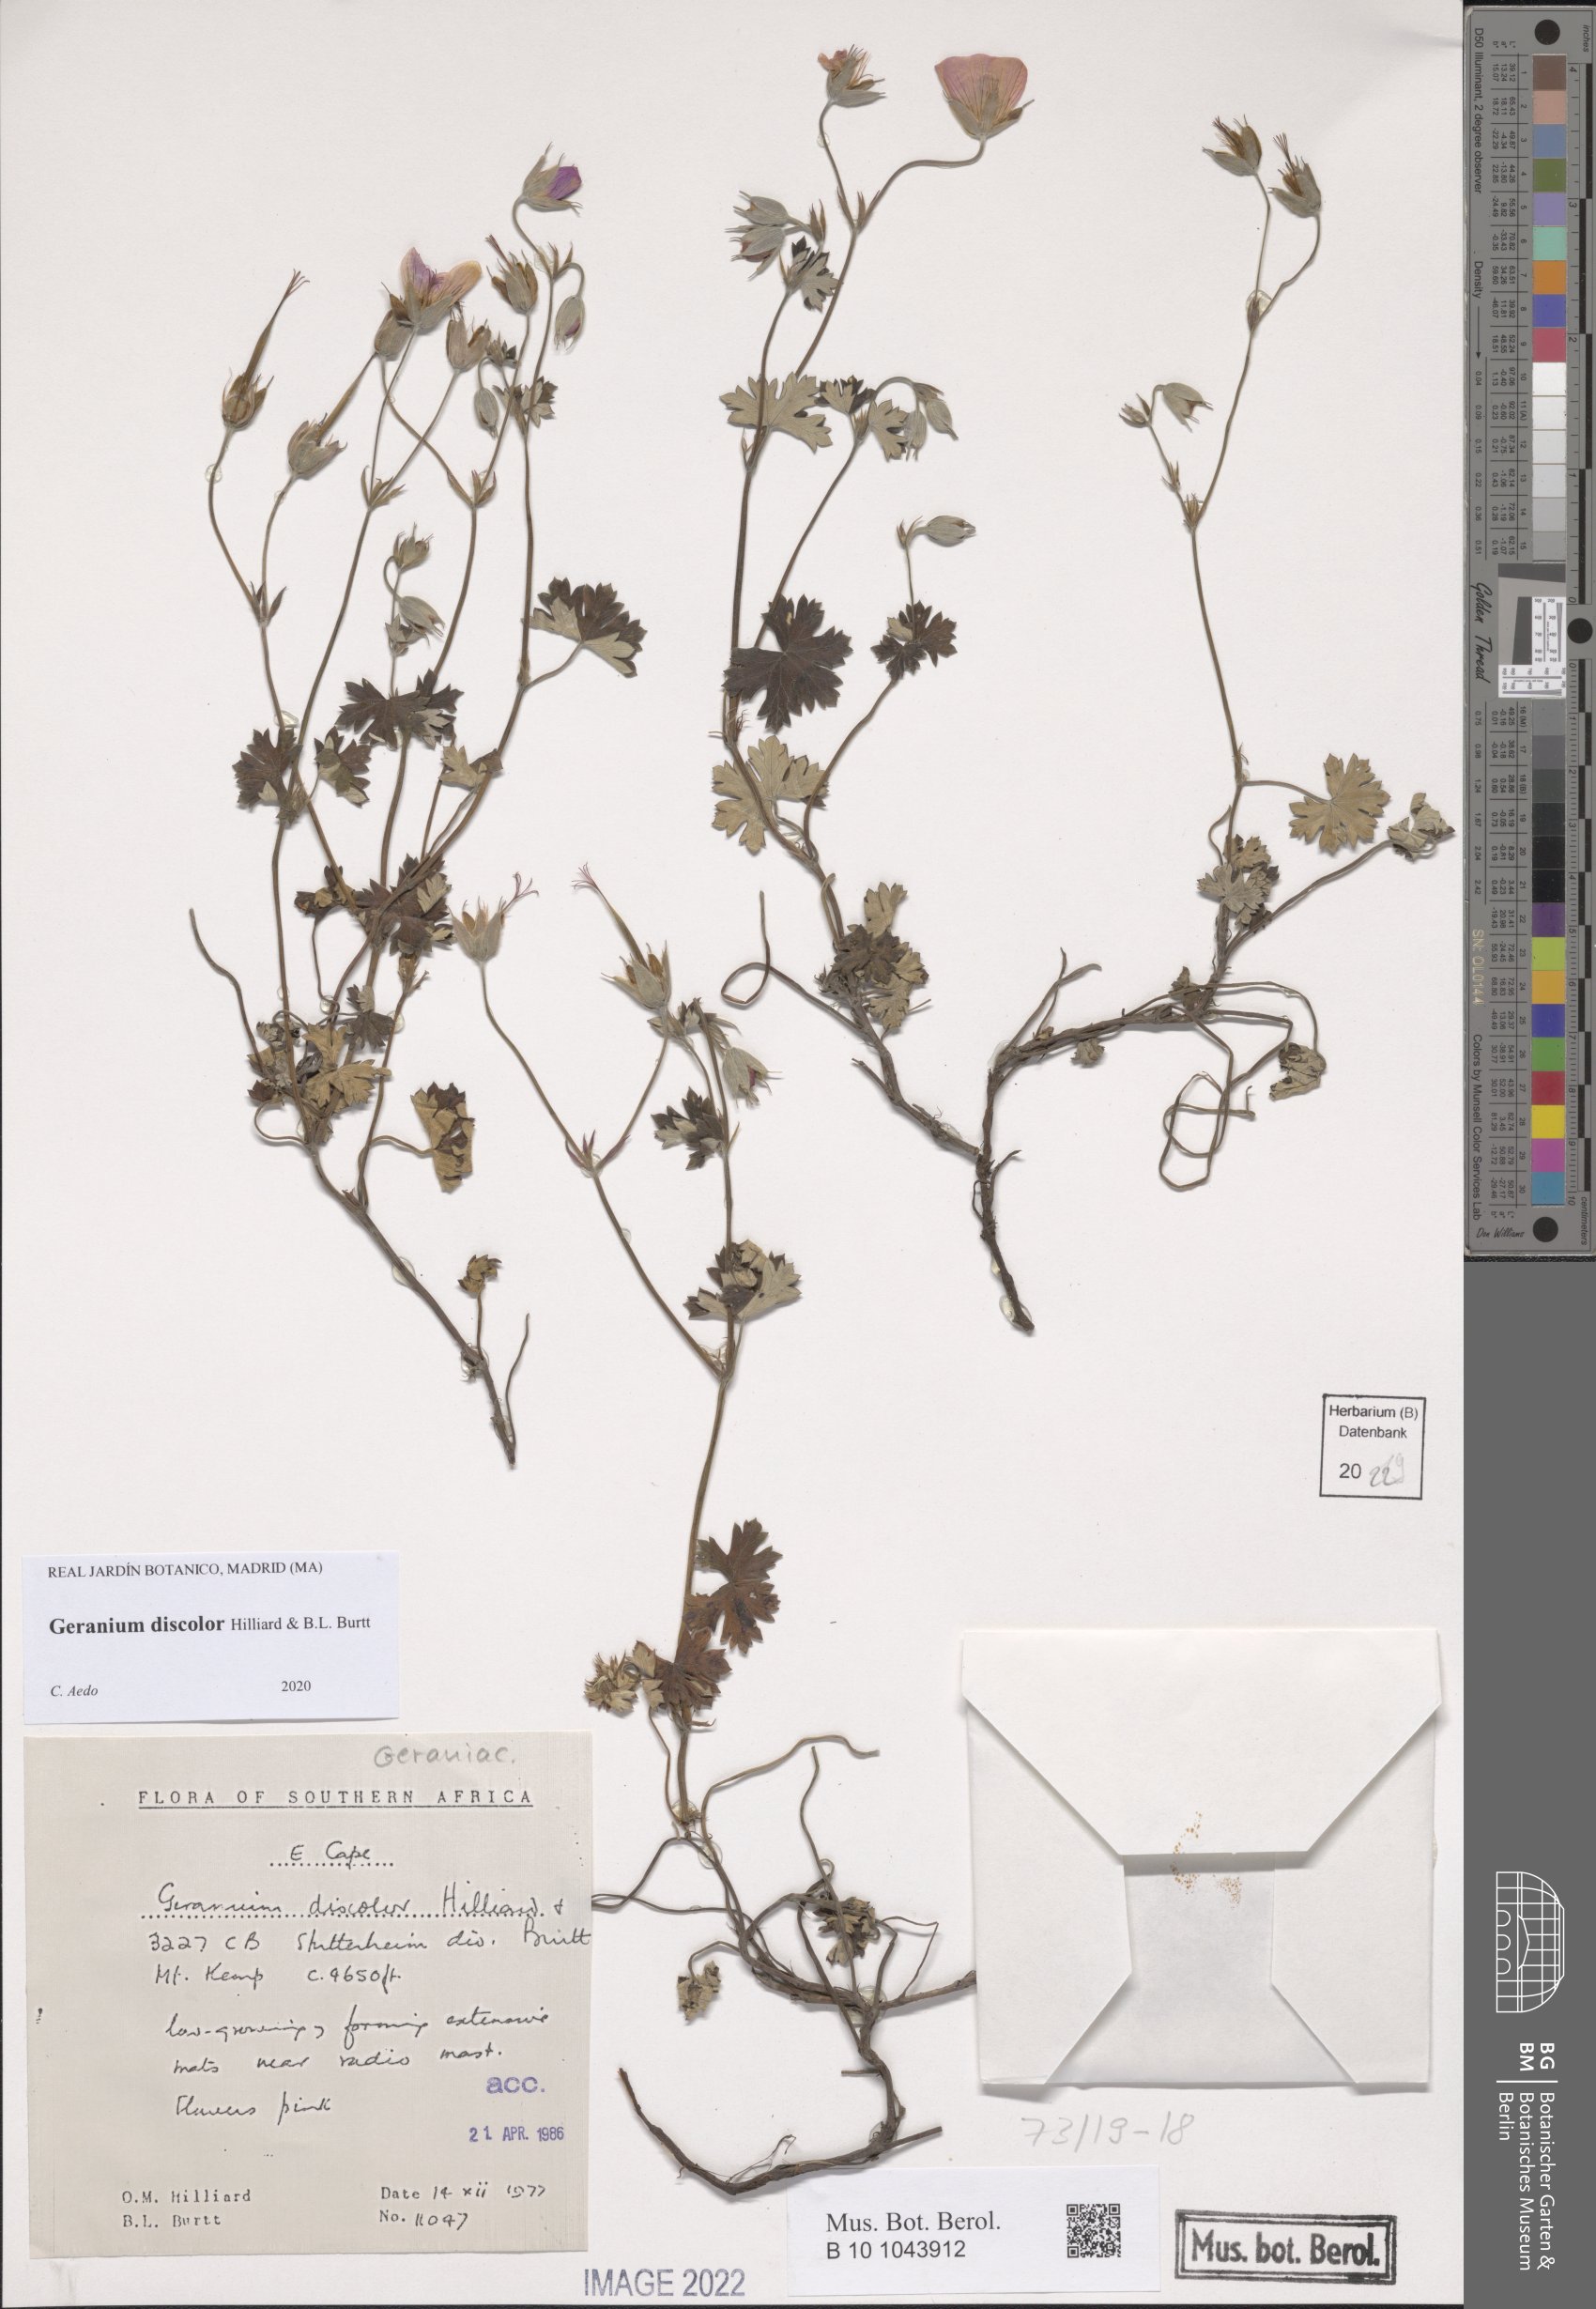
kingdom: Plantae
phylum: Tracheophyta
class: Magnoliopsida
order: Geraniales
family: Geraniaceae
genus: Geranium
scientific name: Geranium discolor
